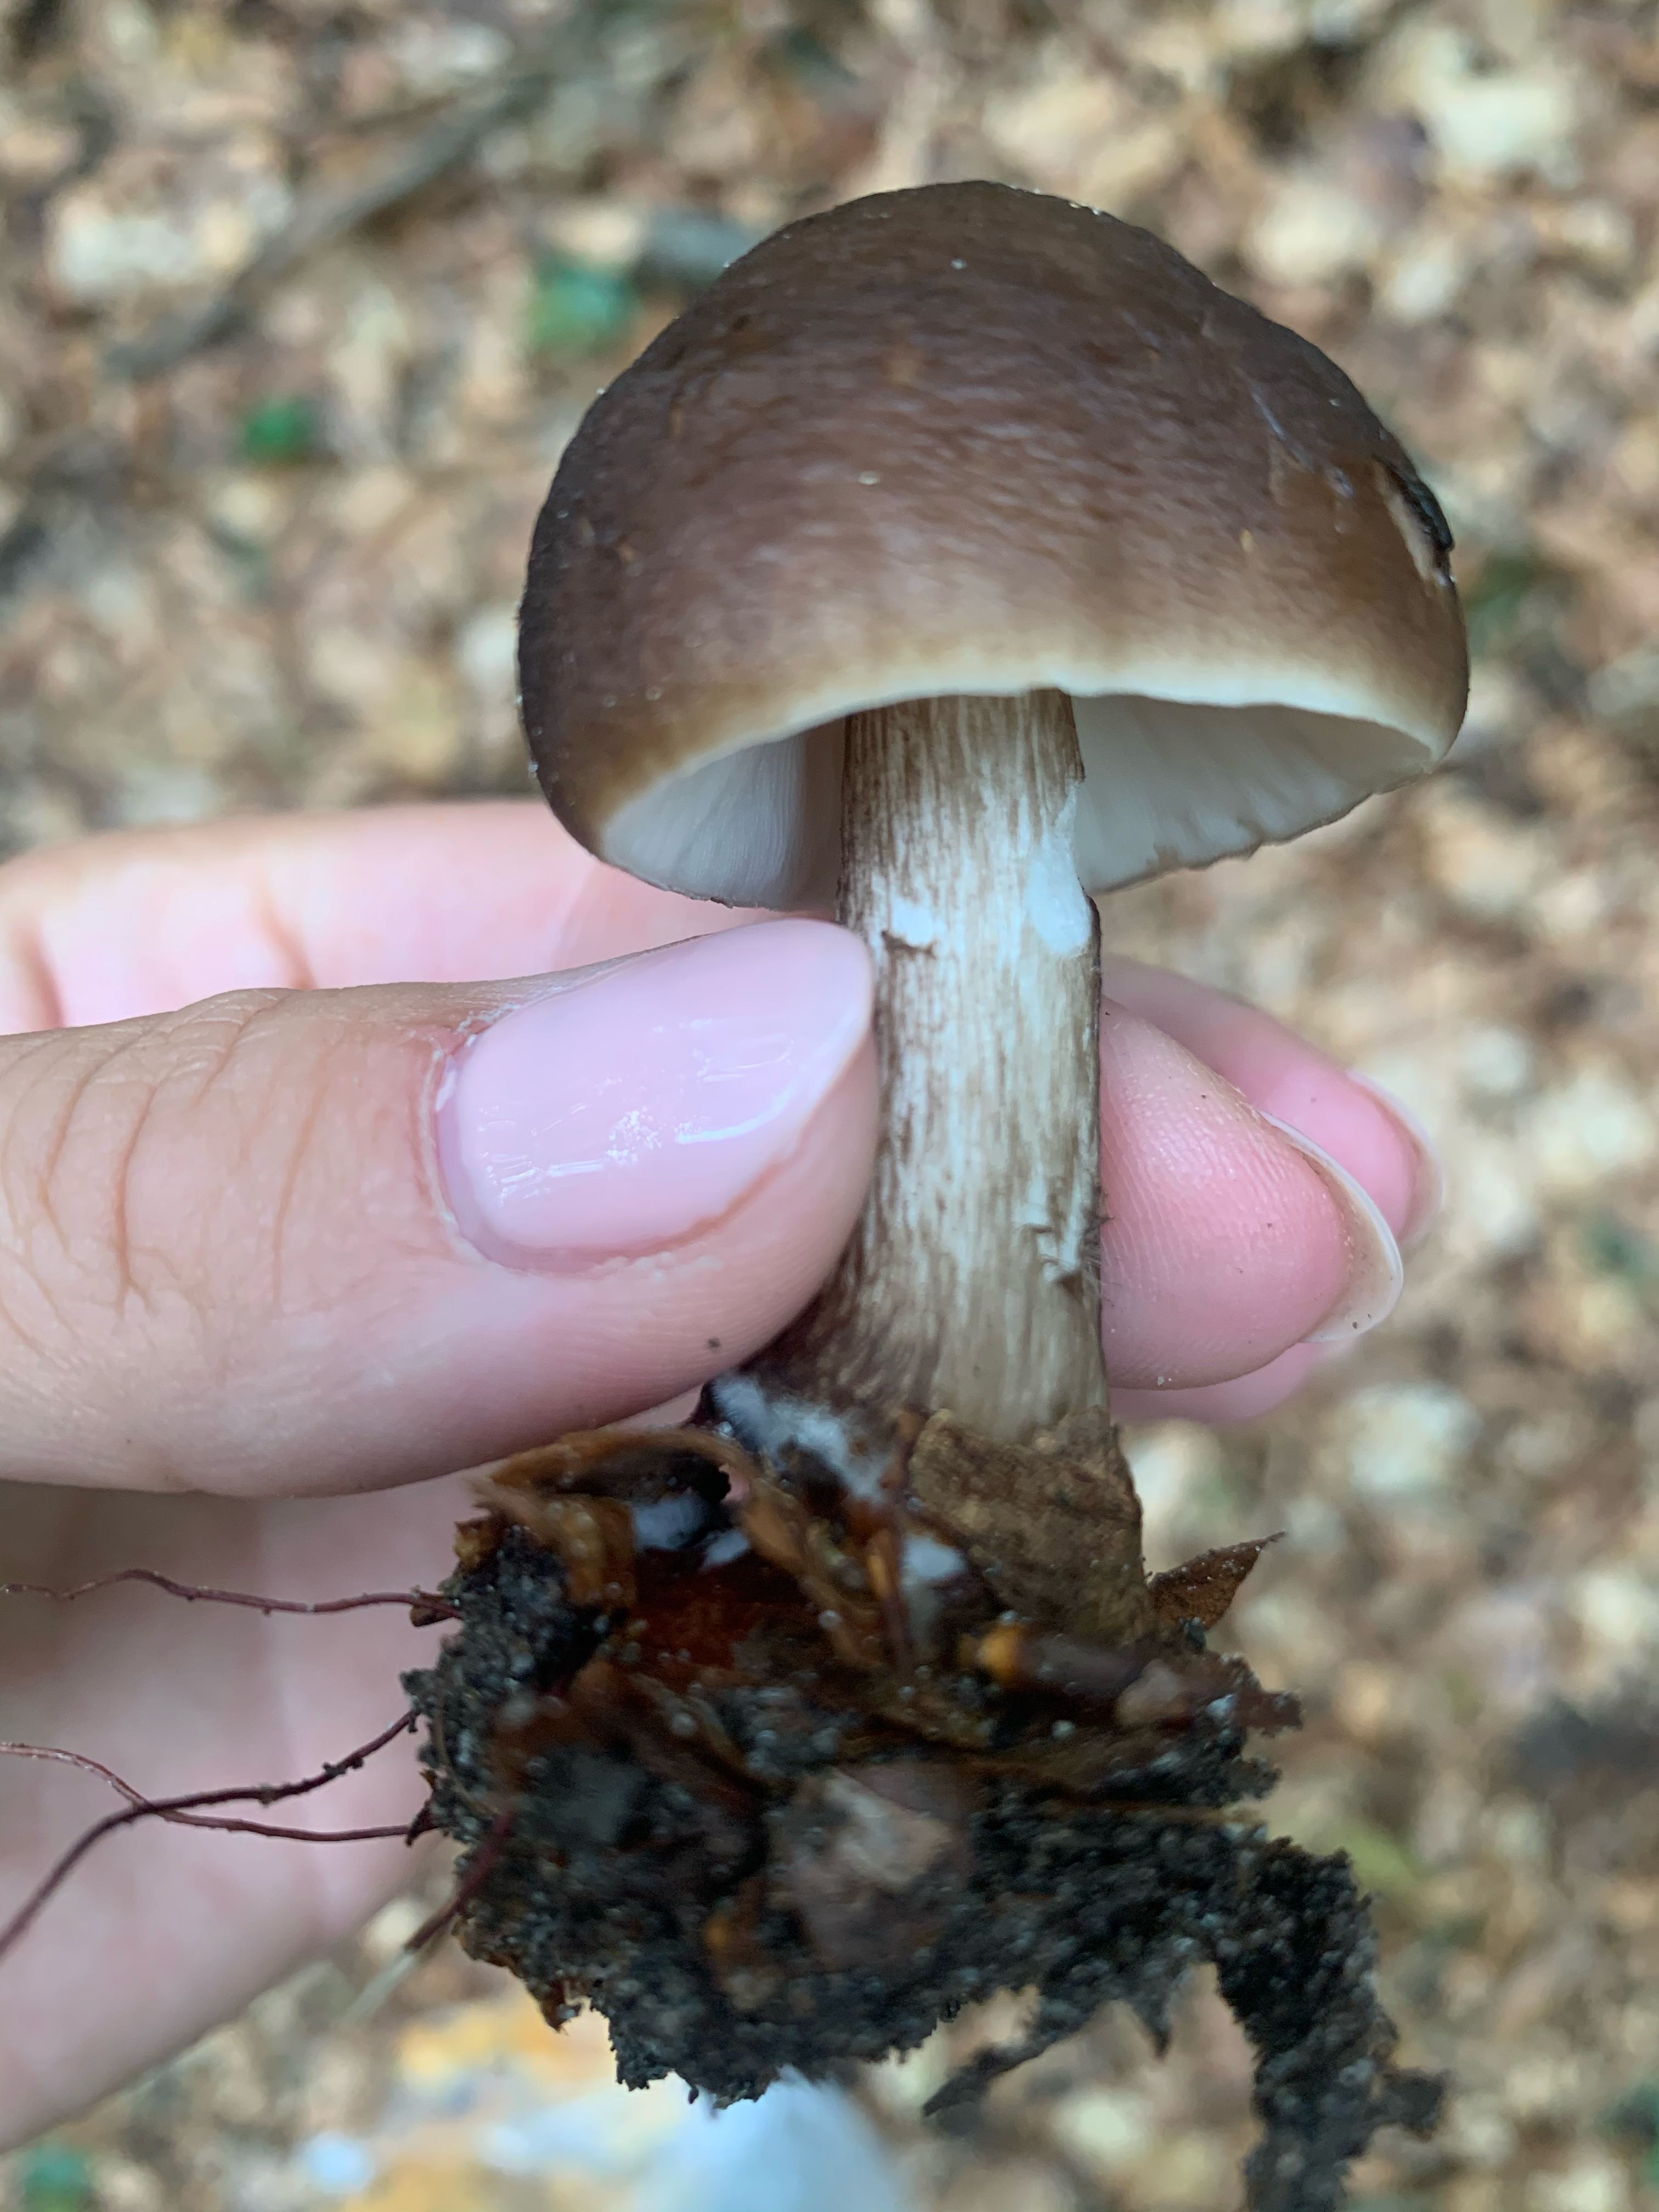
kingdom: Fungi
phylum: Basidiomycota
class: Agaricomycetes
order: Agaricales
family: Pluteaceae
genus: Pluteus
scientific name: Pluteus cervinus
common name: sodfarvet skærmhat
